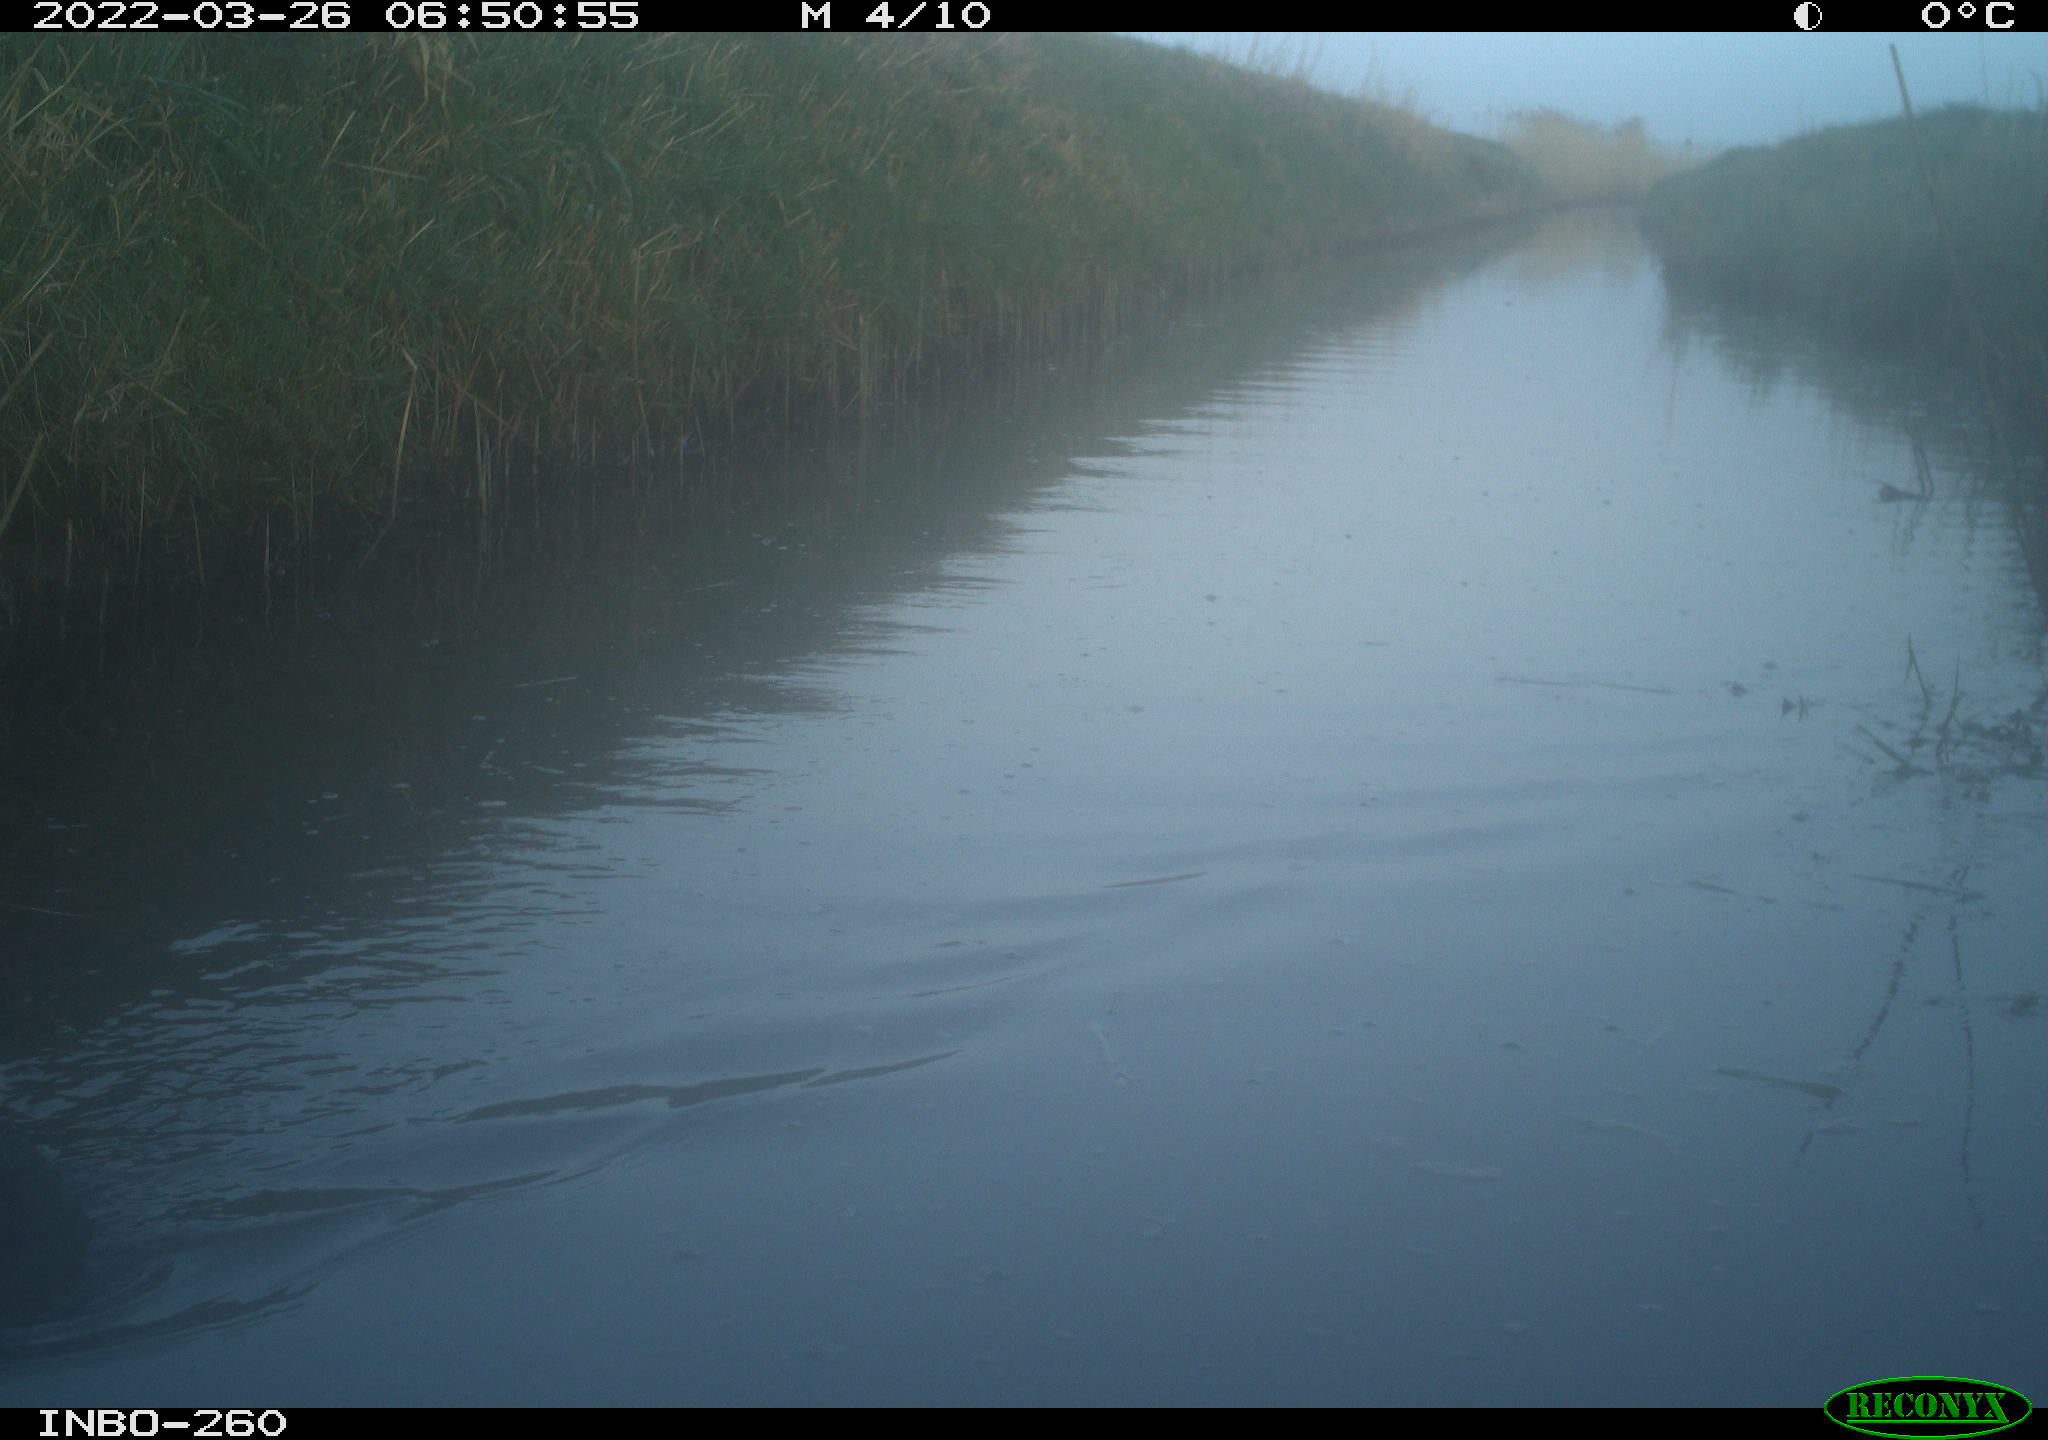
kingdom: Animalia
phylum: Chordata
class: Aves
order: Gruiformes
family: Rallidae
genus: Fulica
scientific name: Fulica atra
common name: Eurasian coot
